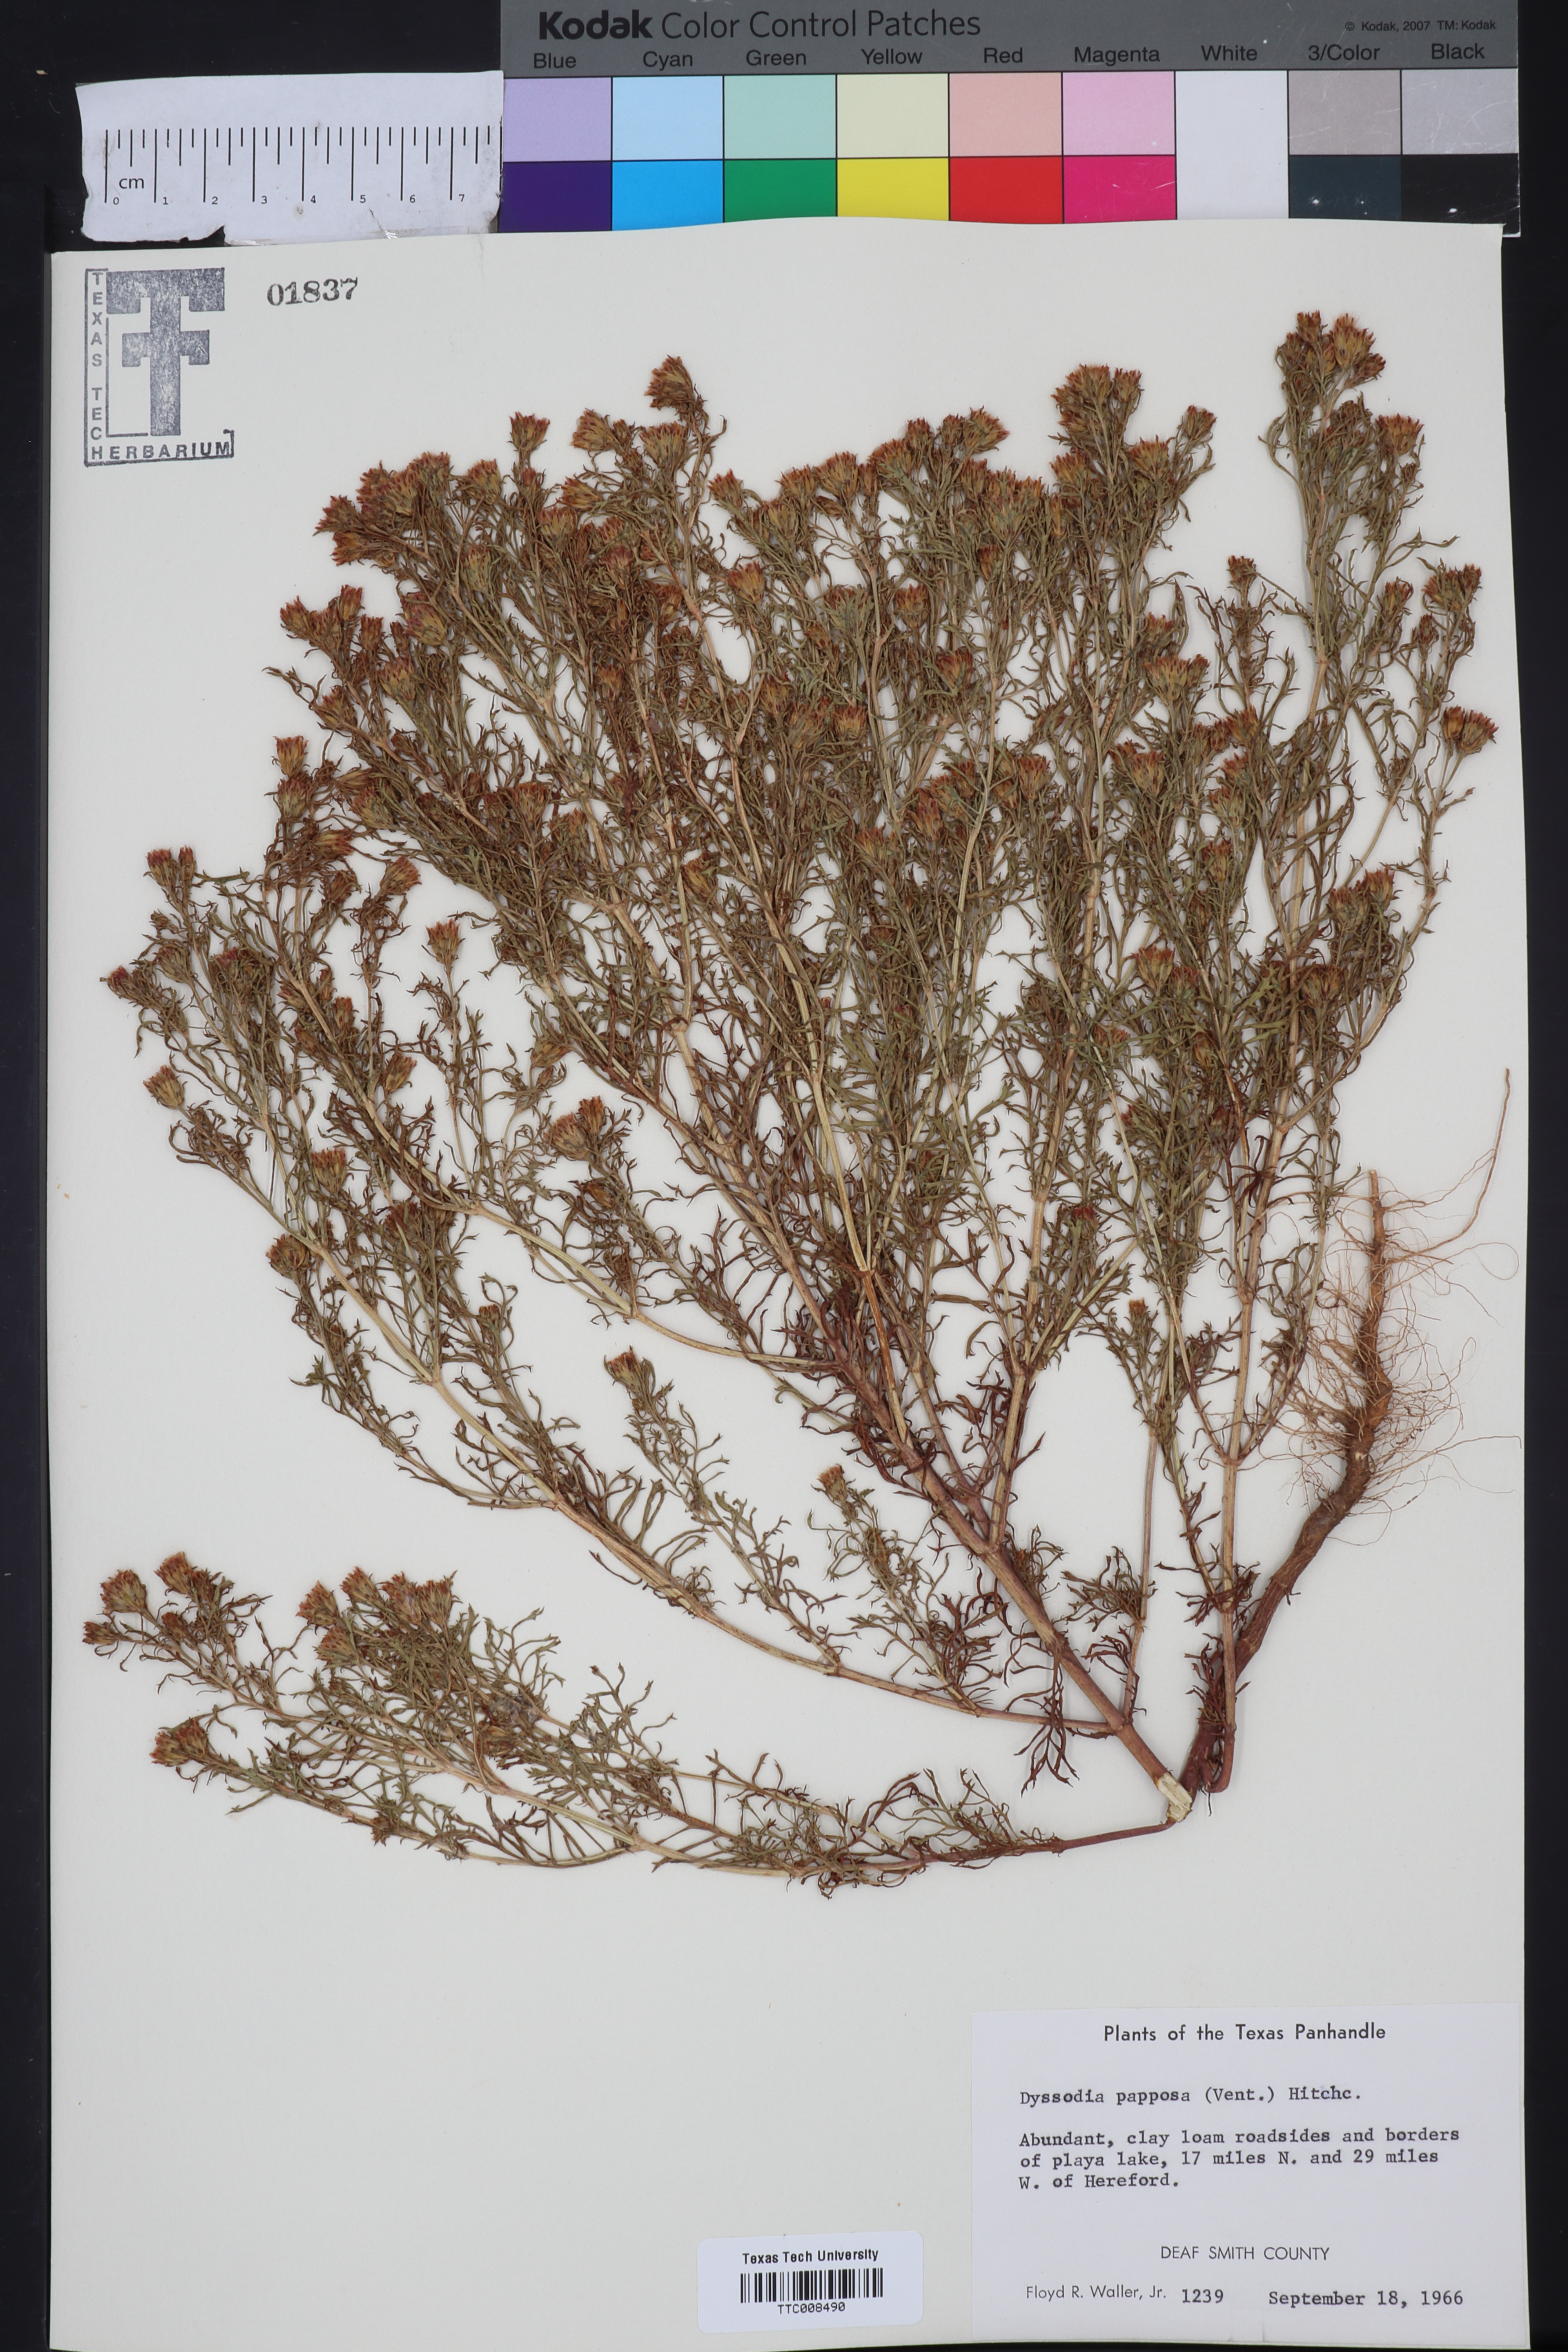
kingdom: Plantae
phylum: Tracheophyta
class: Magnoliopsida
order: Asterales
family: Asteraceae
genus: Dyssodia
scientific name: Dyssodia papposa
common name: Dogweed
